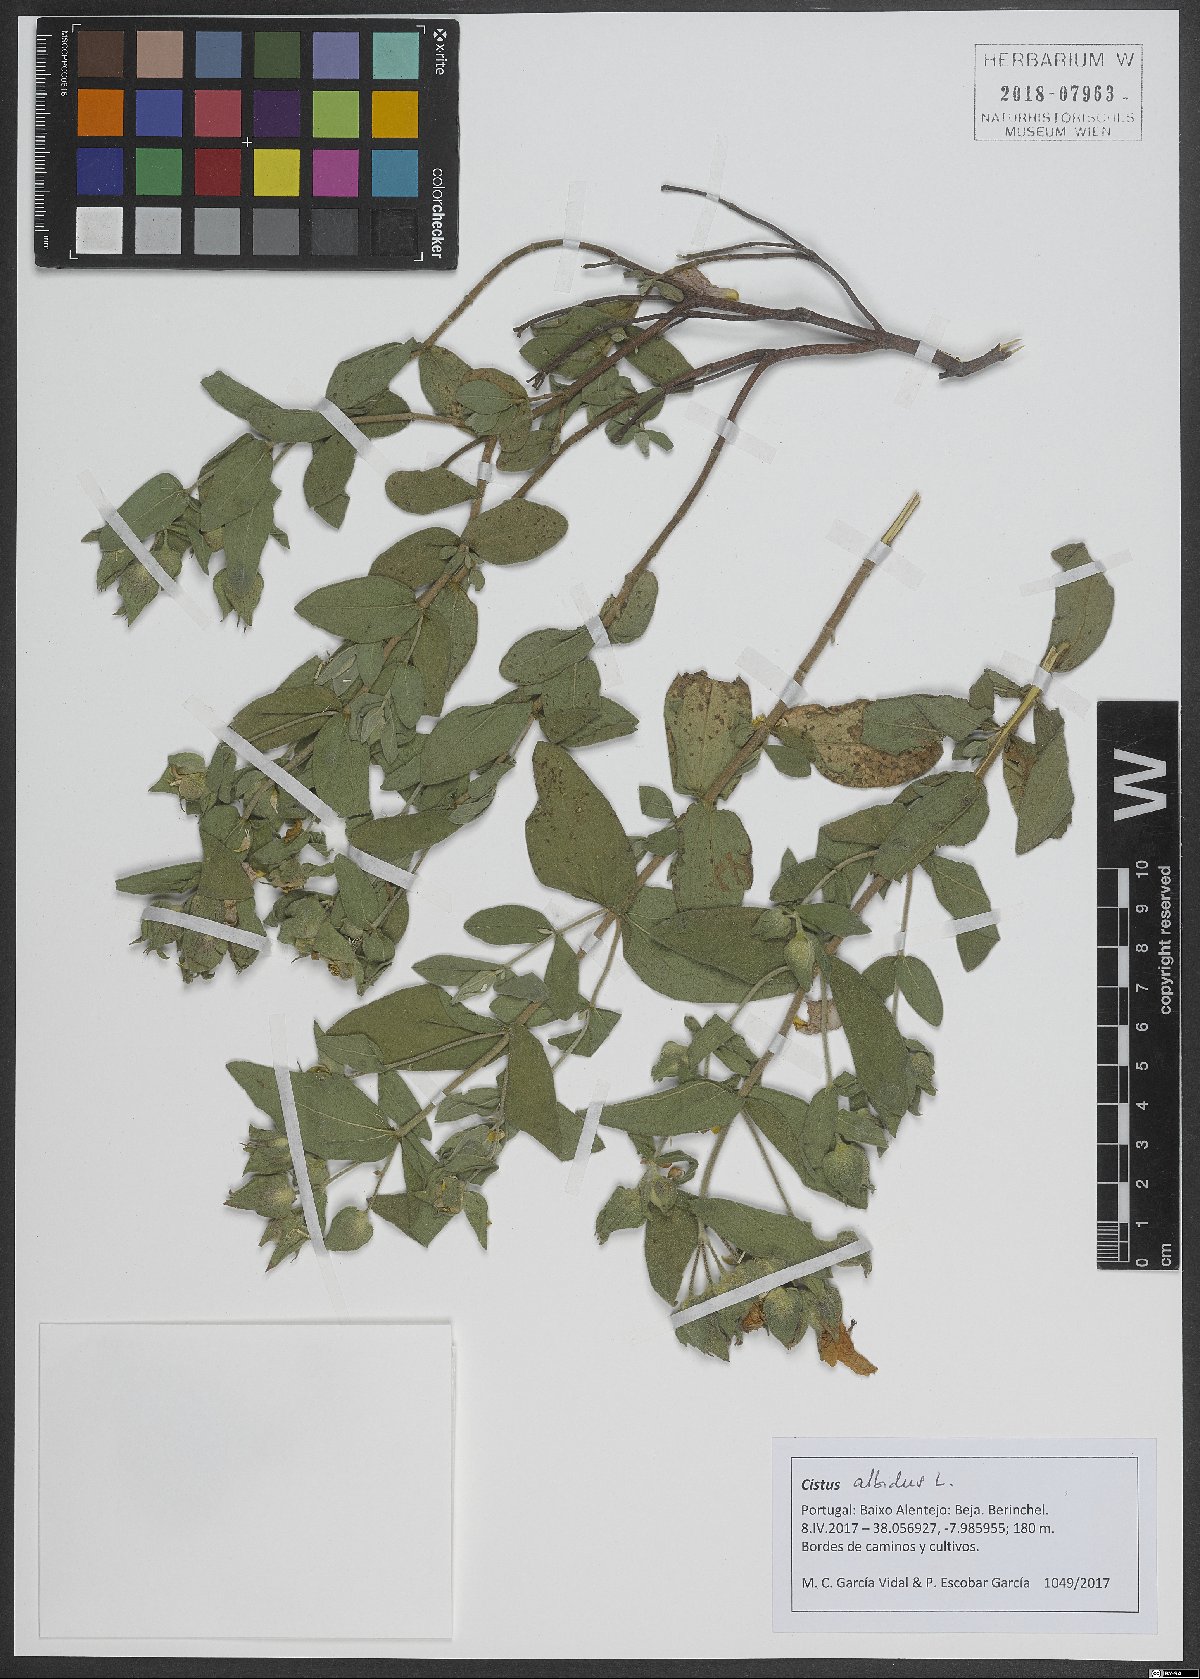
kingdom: Plantae
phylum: Tracheophyta
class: Magnoliopsida
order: Malvales
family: Cistaceae
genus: Cistus
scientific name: Cistus albidus
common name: White-leaf rock-rose
